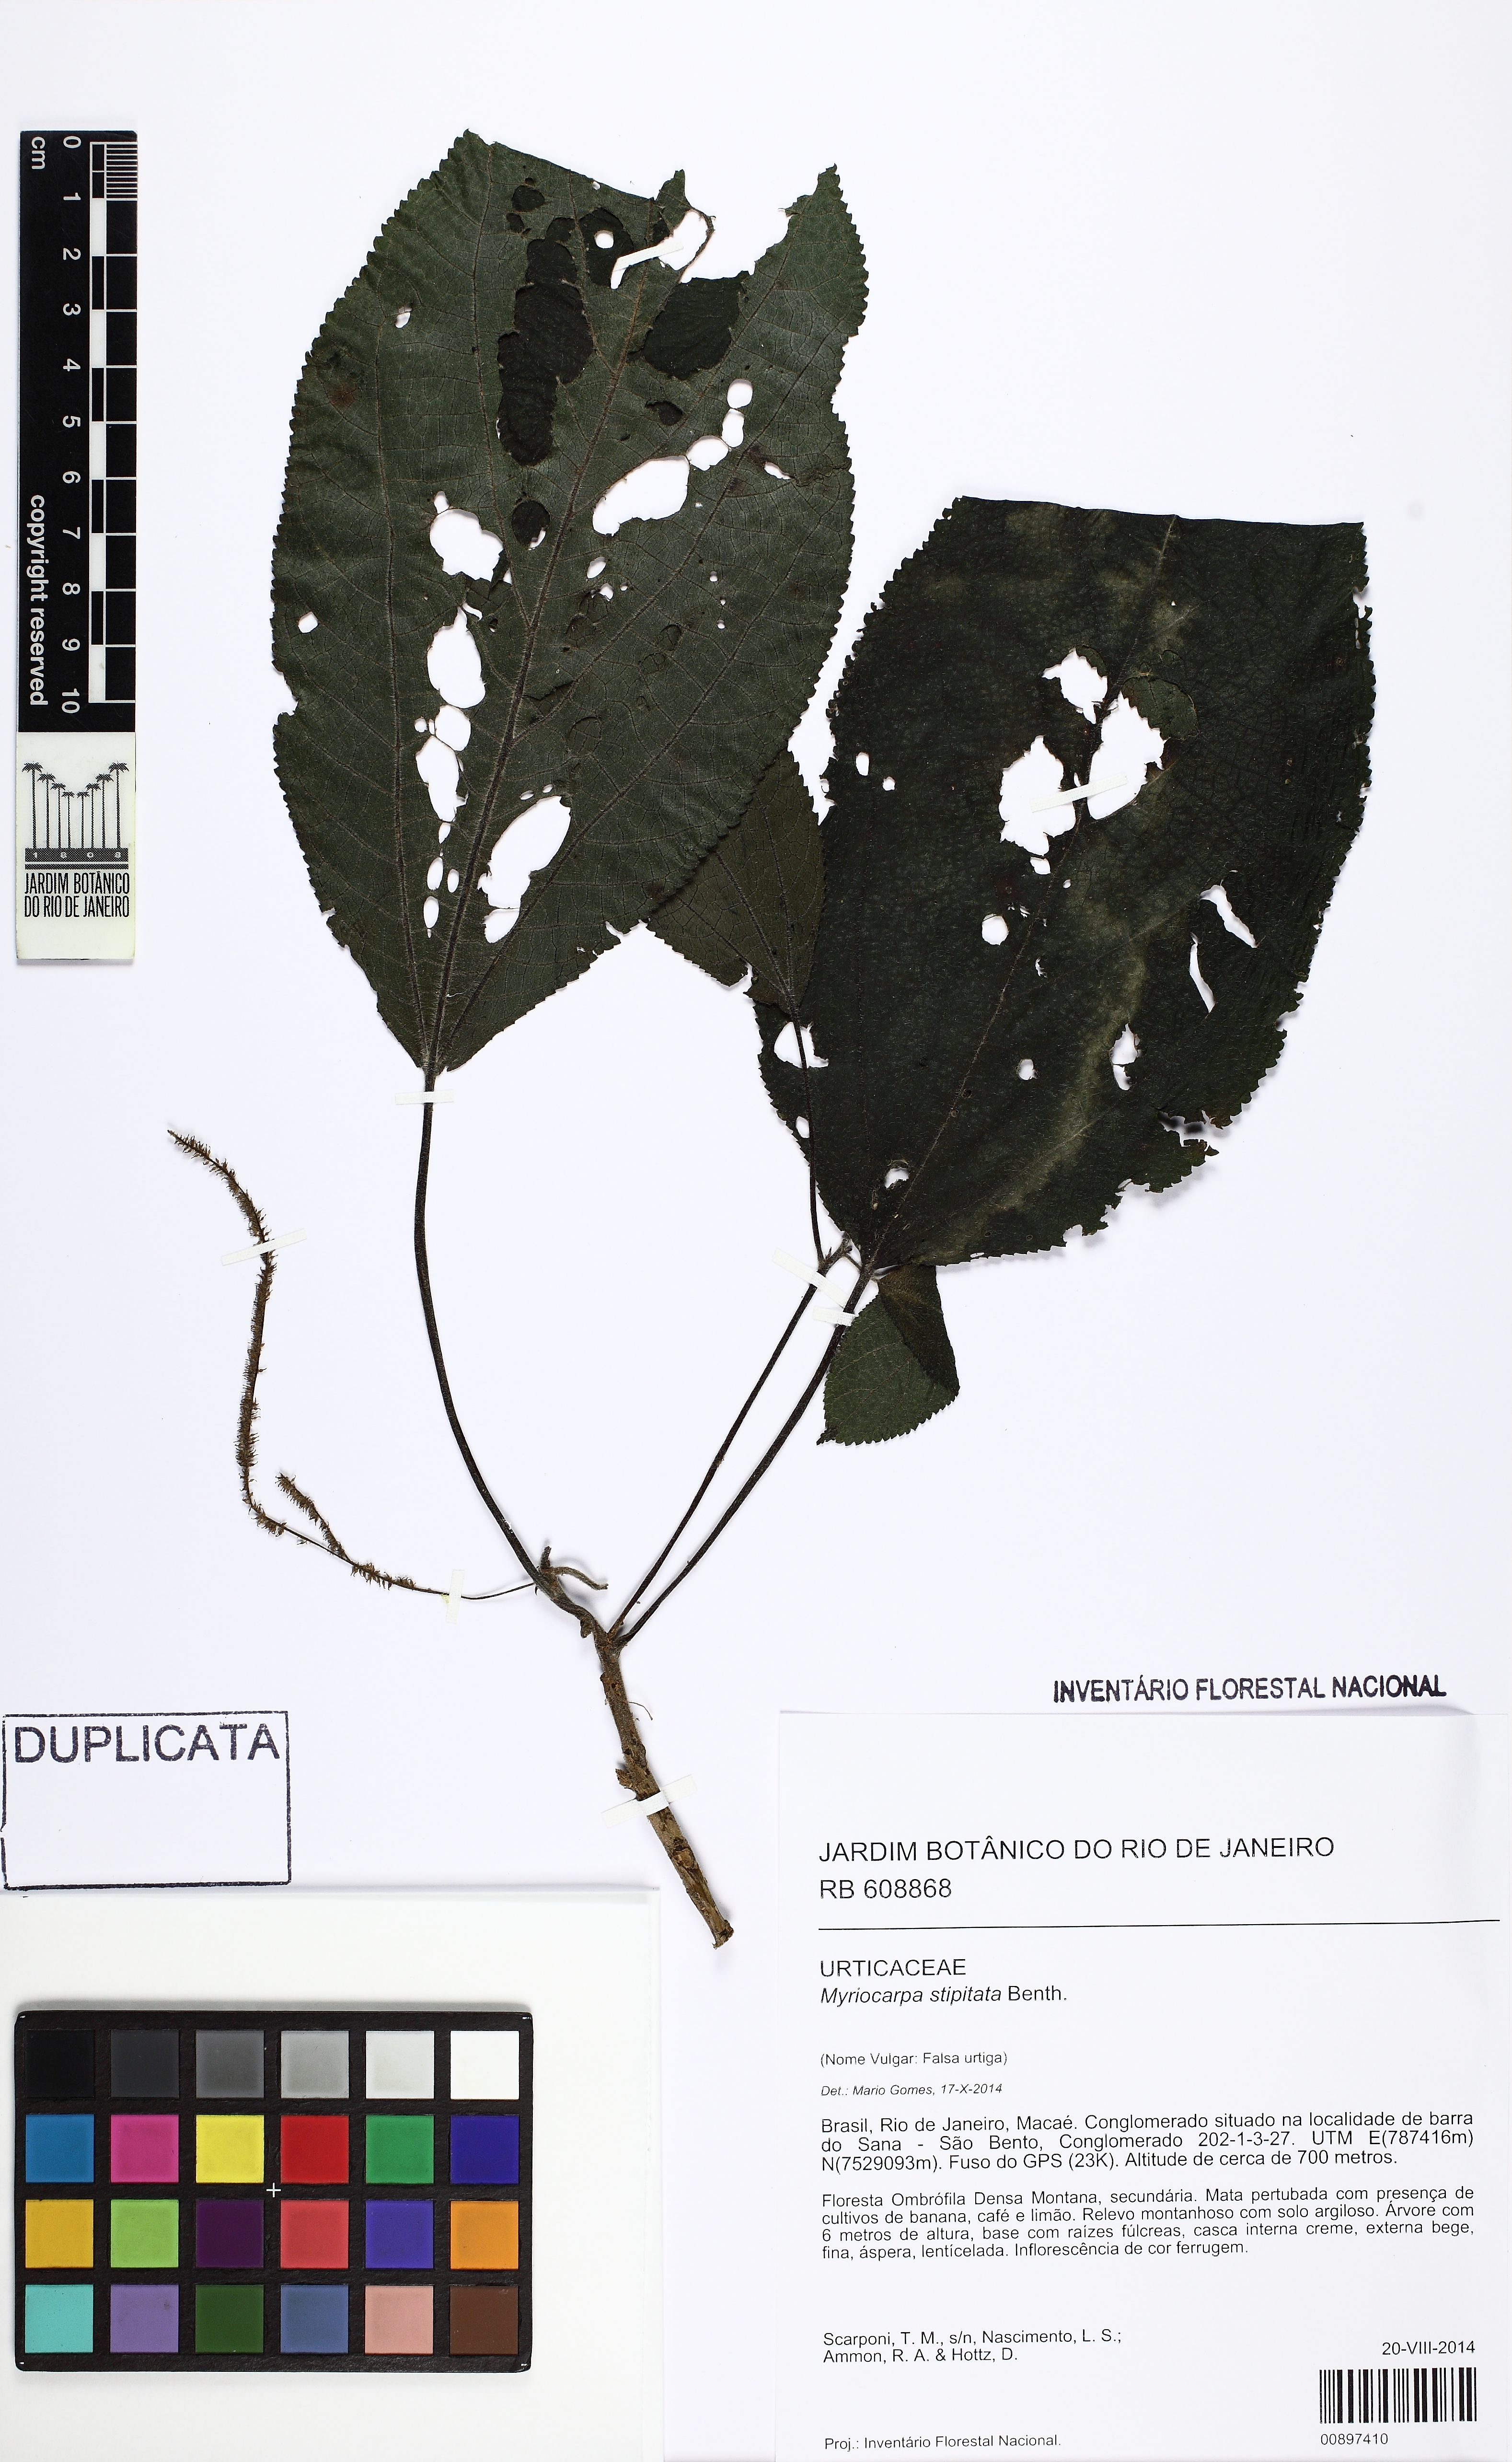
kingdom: Plantae
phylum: Tracheophyta
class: Magnoliopsida
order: Rosales
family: Urticaceae
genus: Myriocarpa
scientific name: Myriocarpa stipitata
